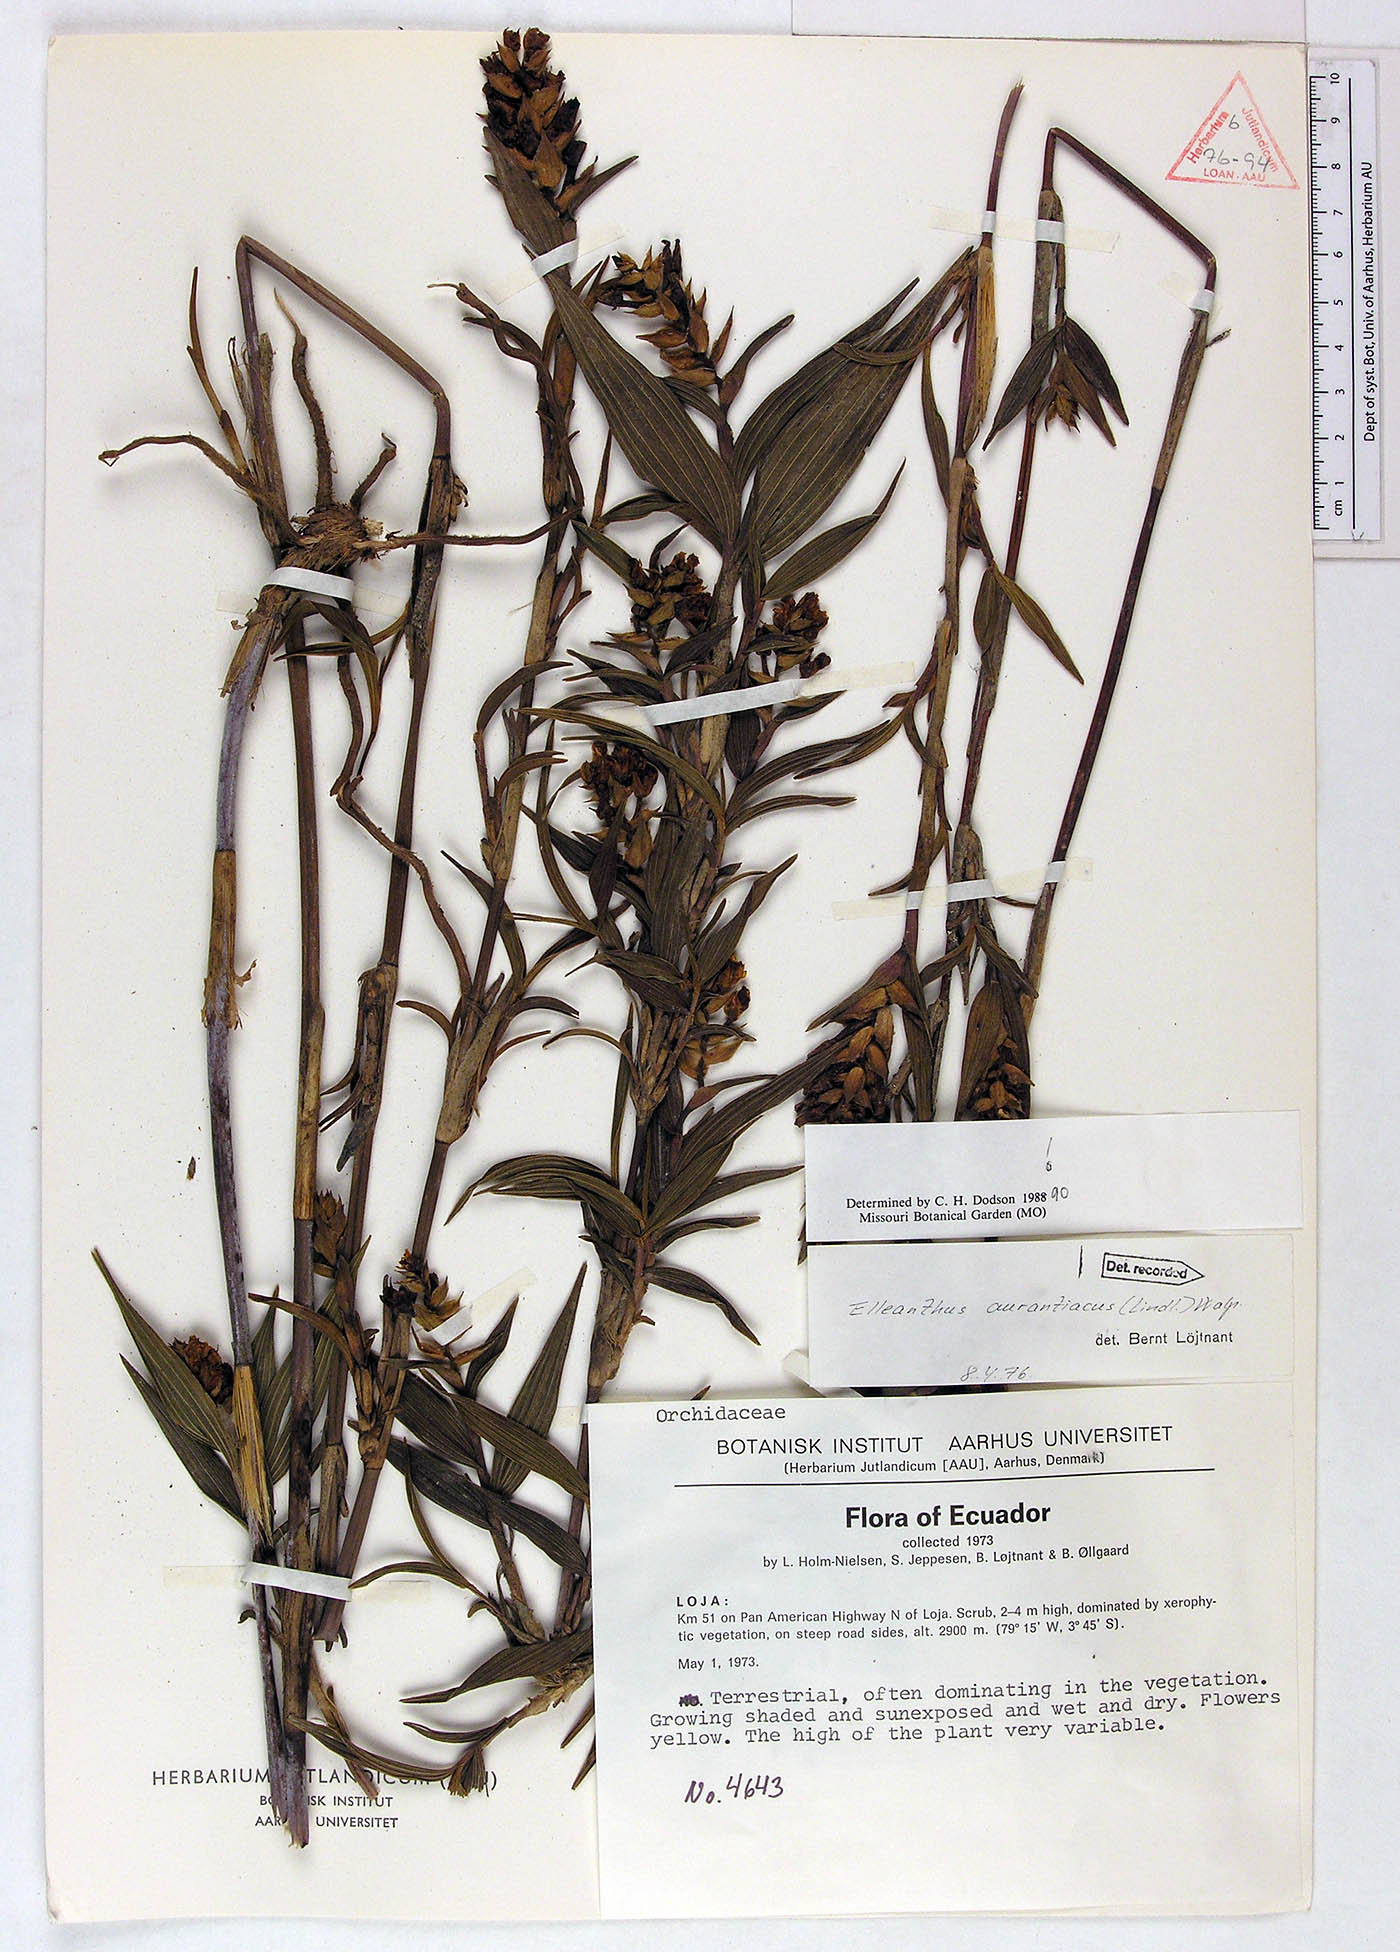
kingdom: Plantae
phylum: Tracheophyta
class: Liliopsida
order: Asparagales
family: Orchidaceae
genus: Elleanthus
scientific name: Elleanthus aurantiacus
